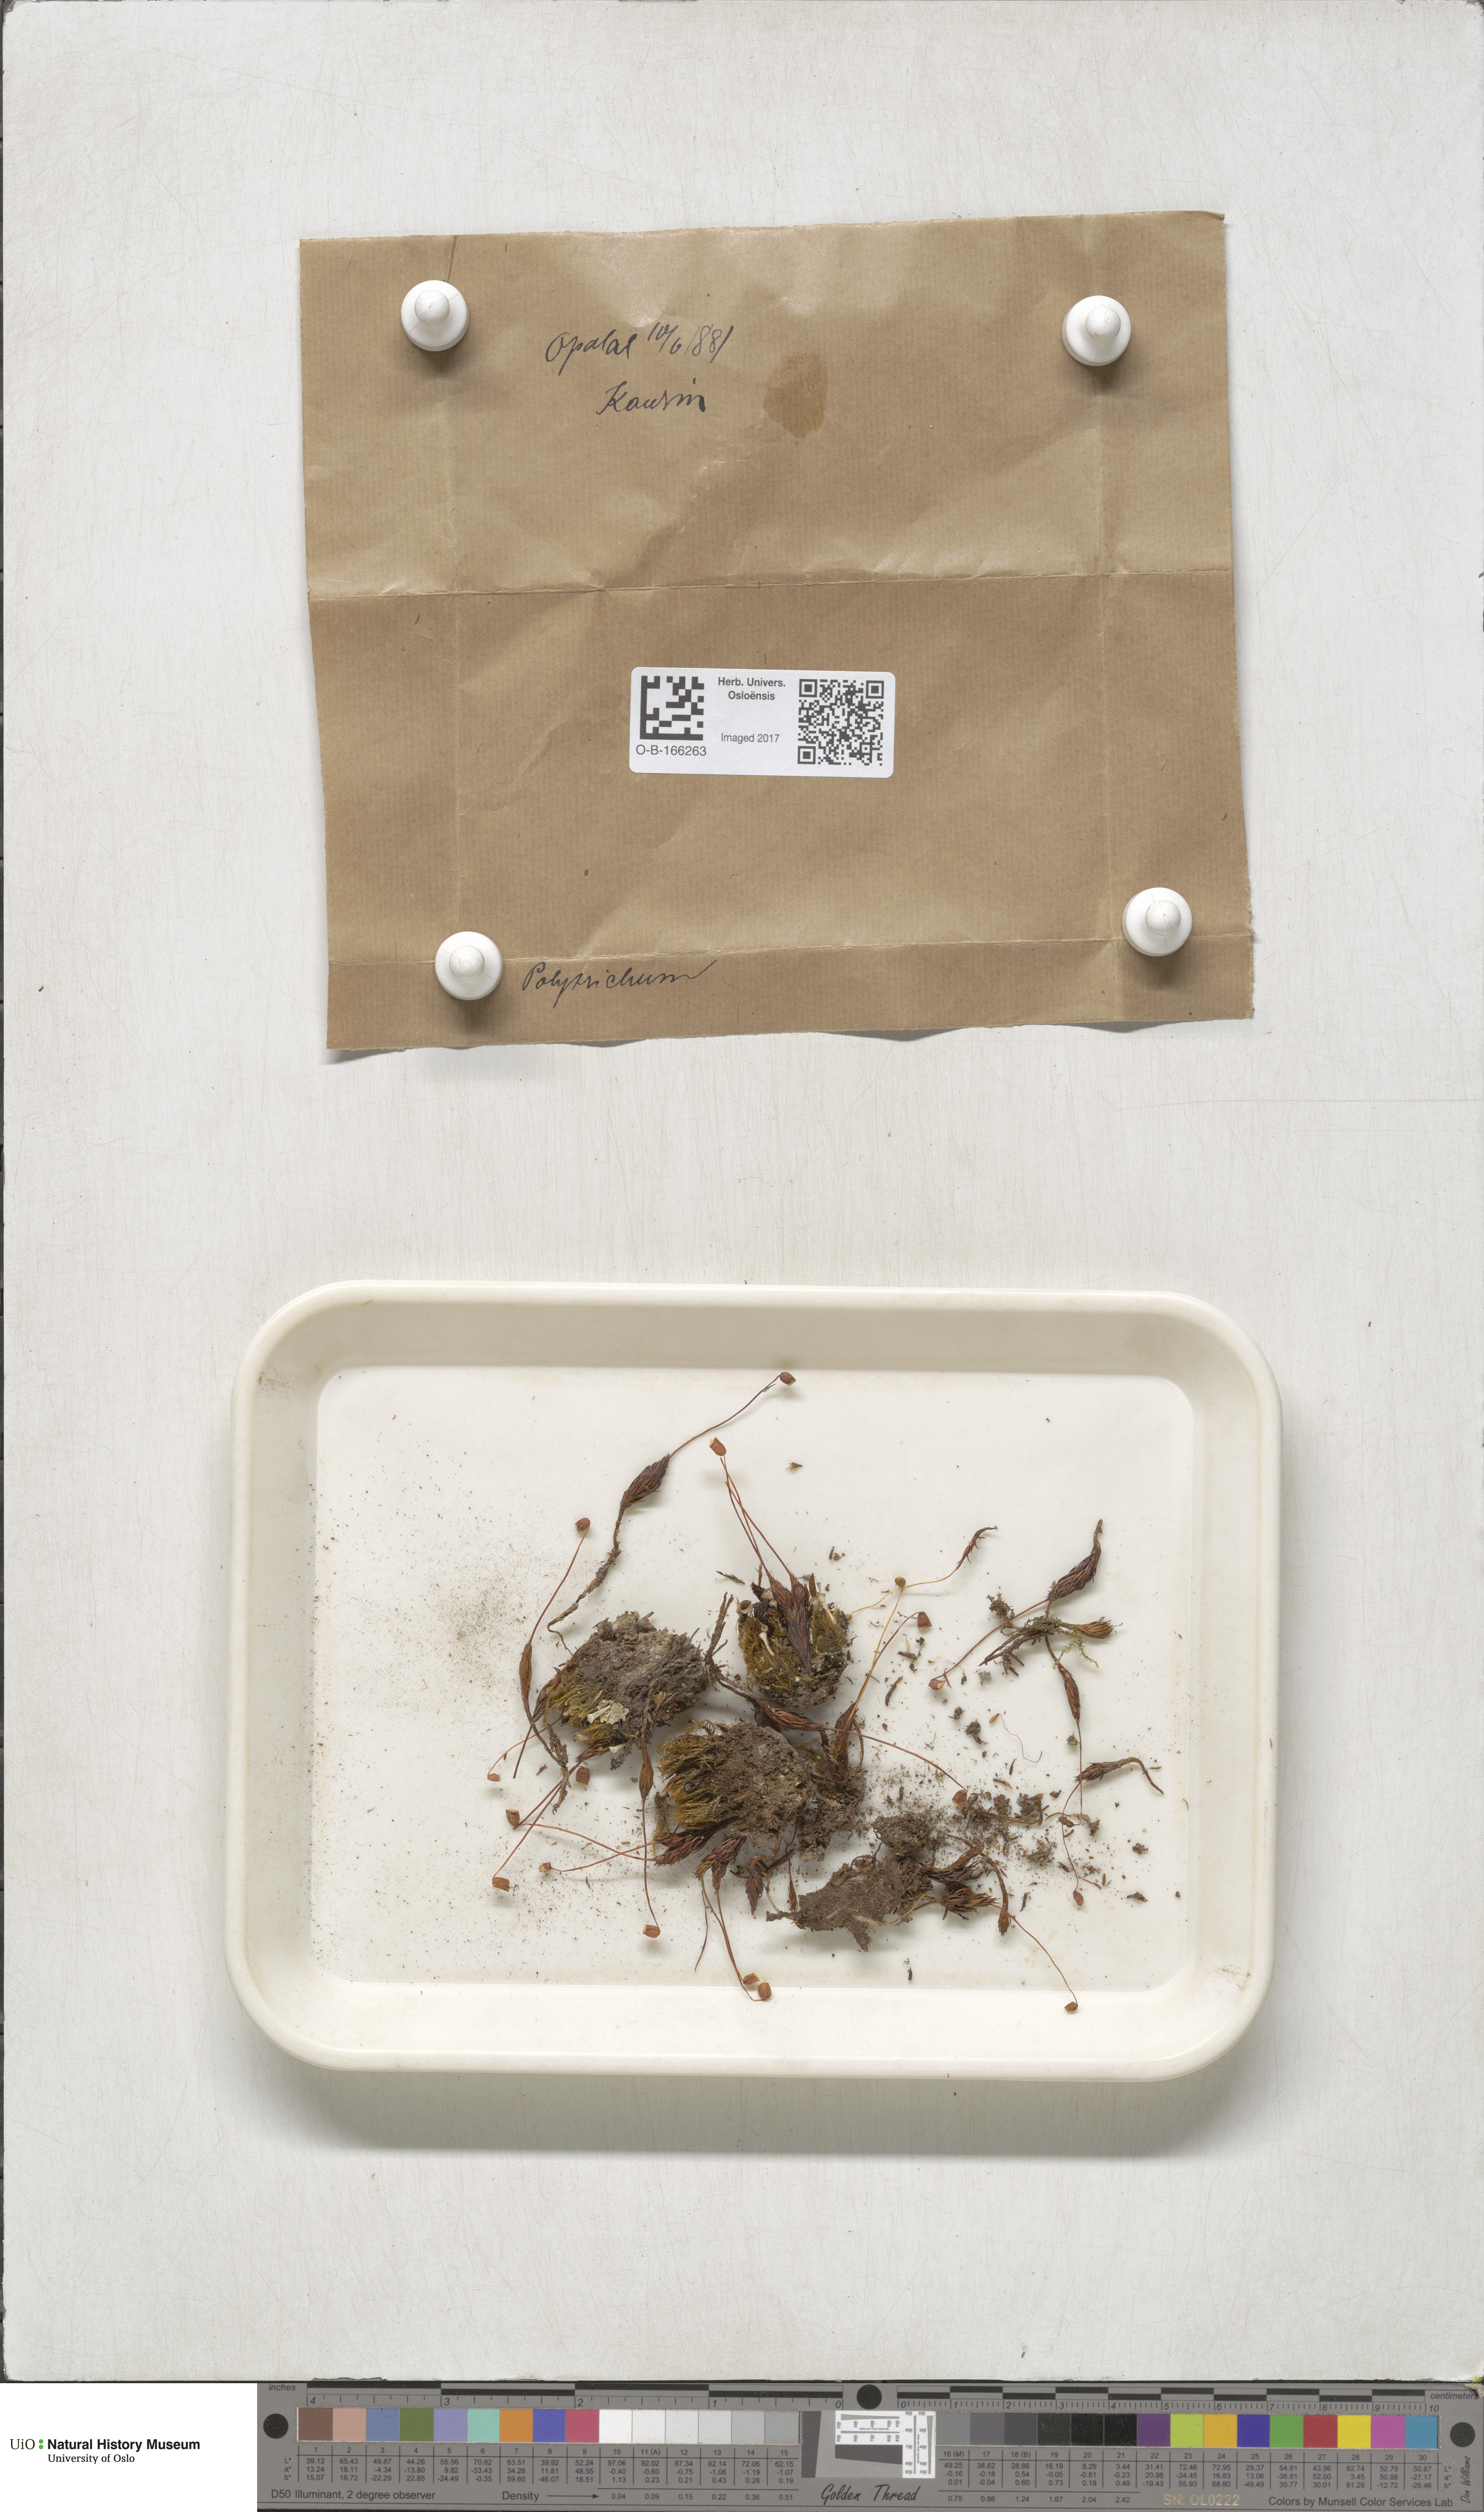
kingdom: Plantae
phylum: Bryophyta
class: Polytrichopsida
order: Polytrichales
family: Polytrichaceae
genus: Polytrichum
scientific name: Polytrichum
